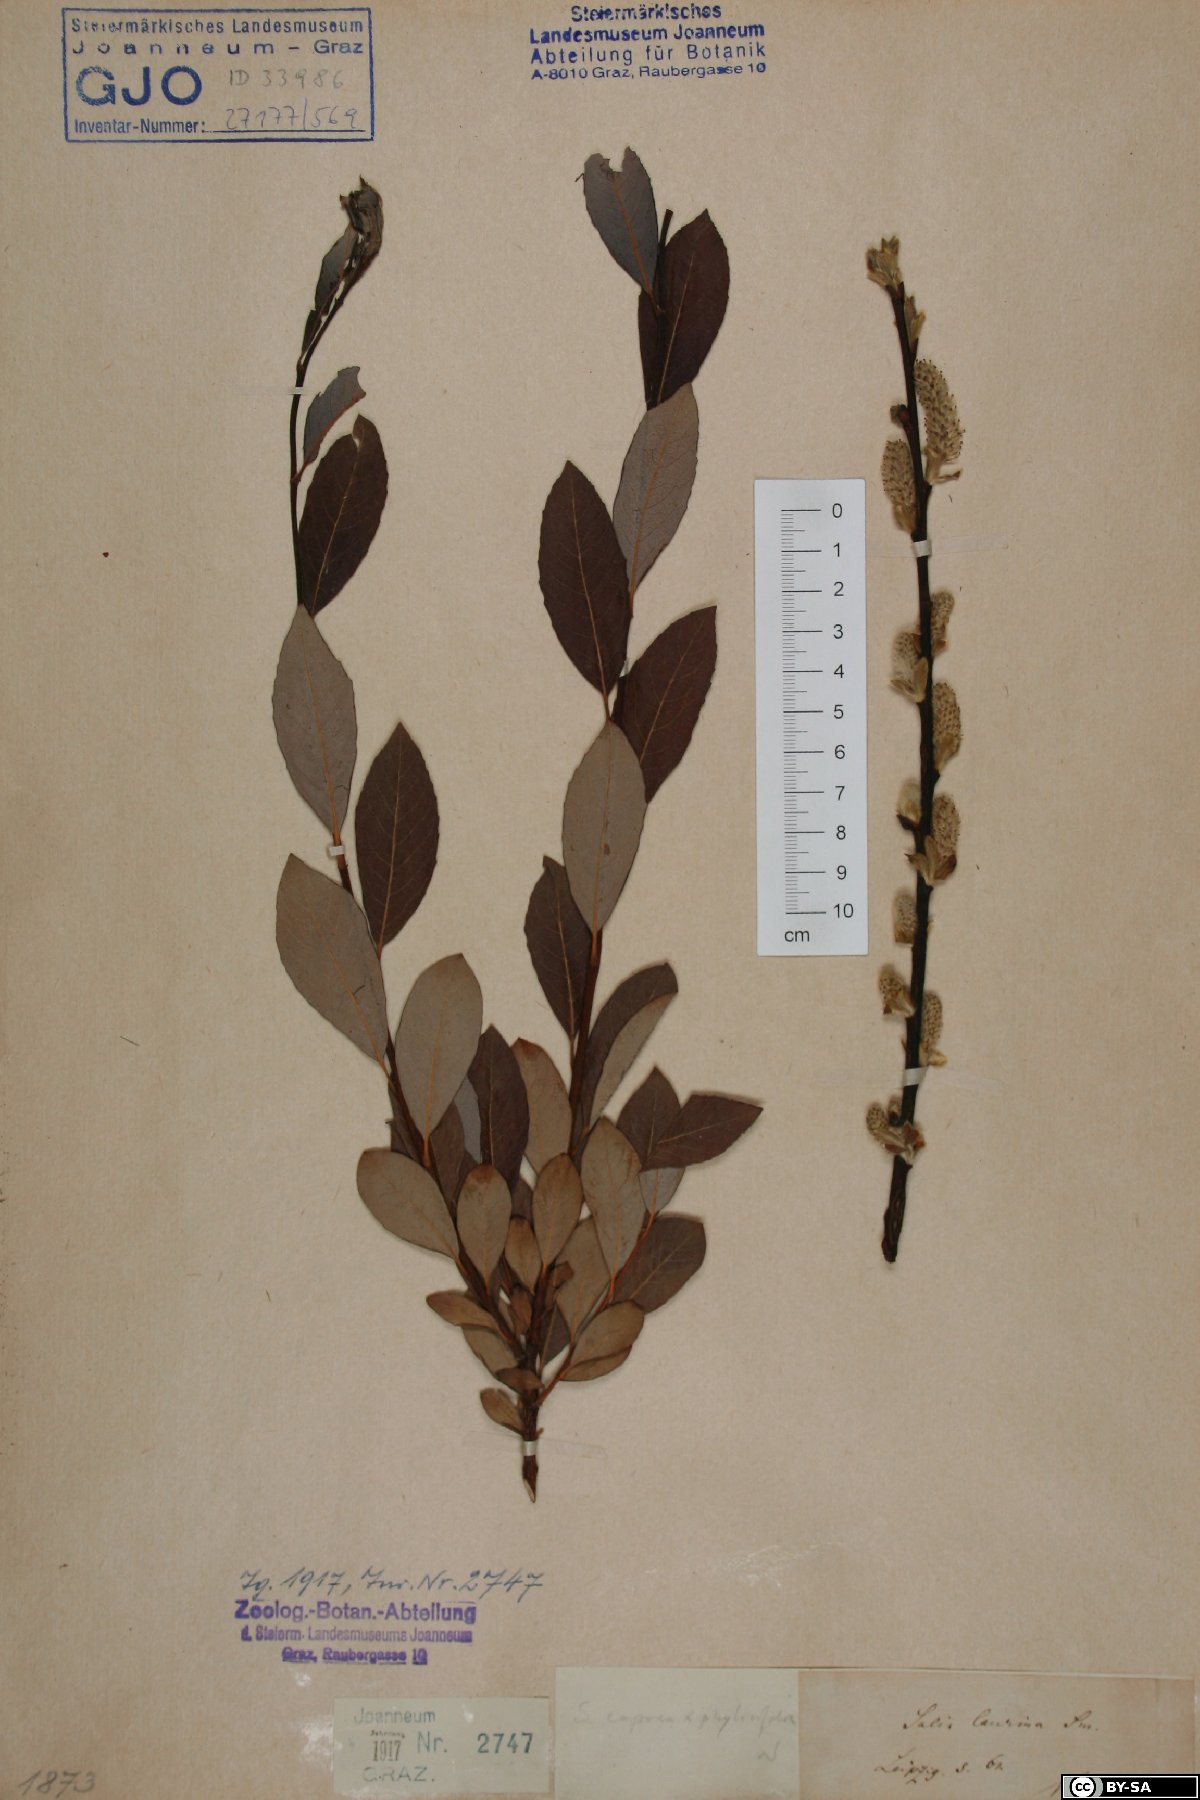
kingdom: Plantae
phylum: Tracheophyta
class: Magnoliopsida
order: Malpighiales
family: Salicaceae
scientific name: Salicaceae
